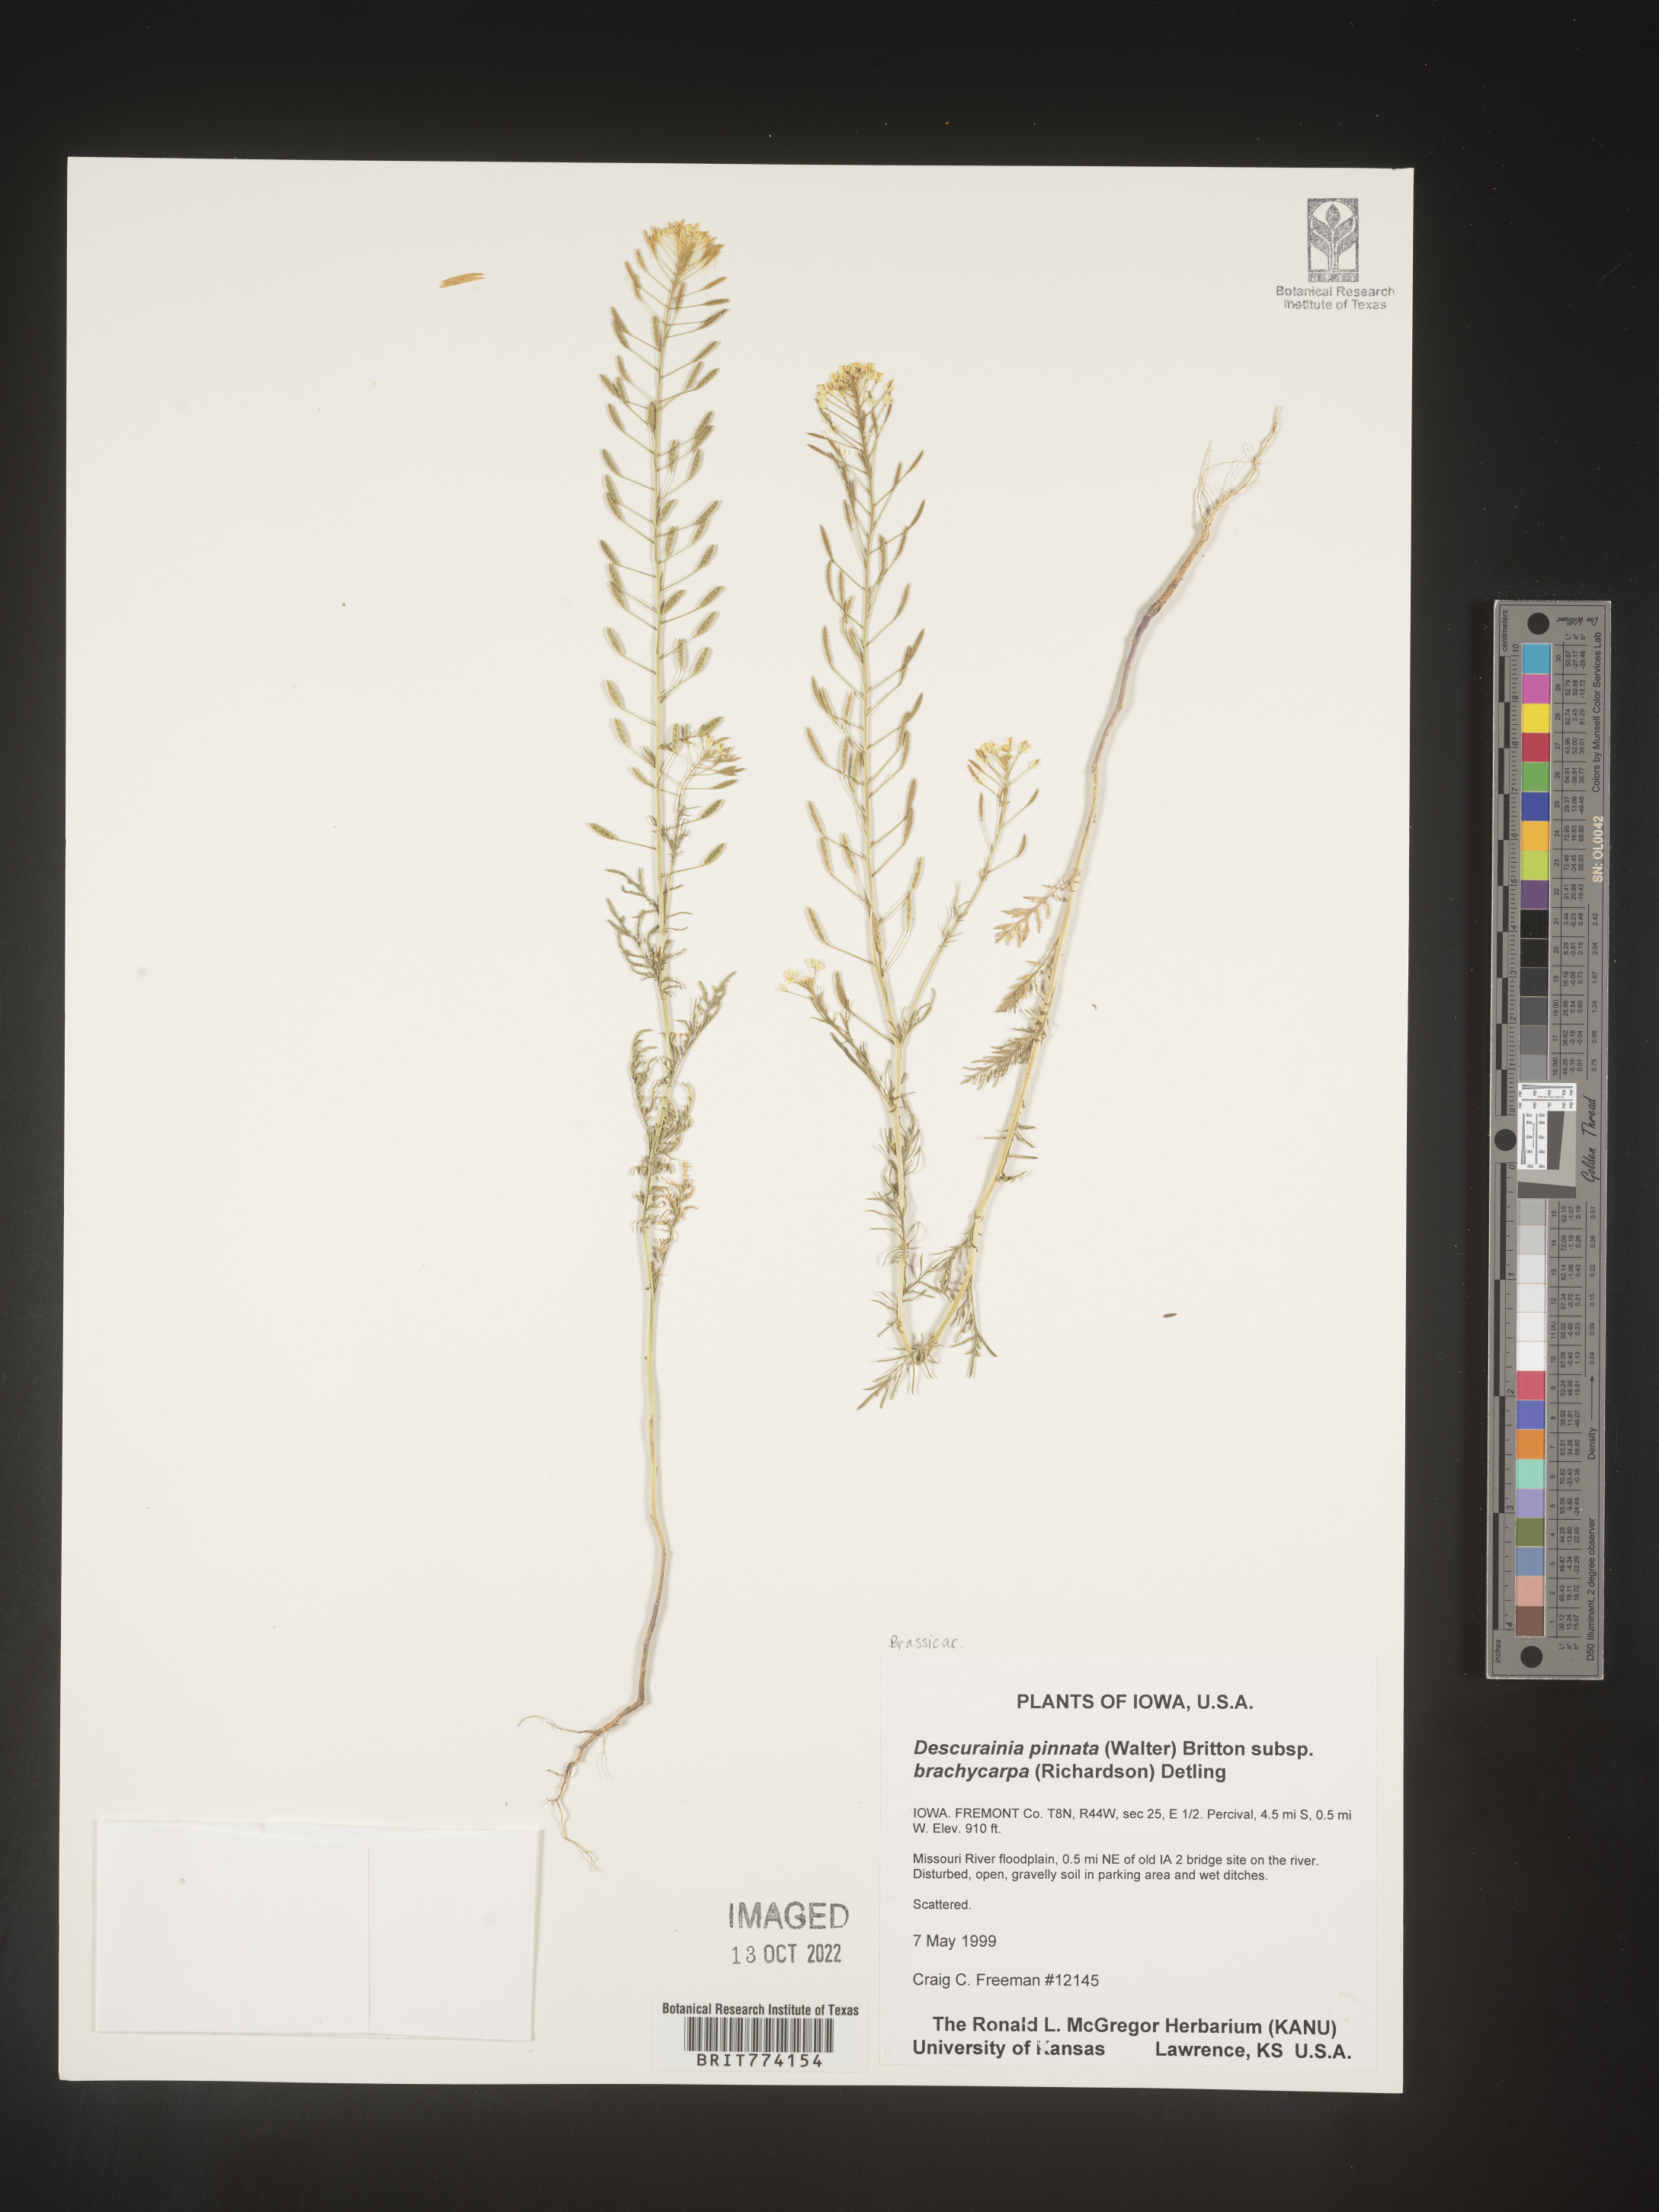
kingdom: Plantae
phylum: Tracheophyta
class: Magnoliopsida
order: Brassicales
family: Brassicaceae
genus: Descurainia
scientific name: Descurainia pinnata
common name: Western tansy mustard
